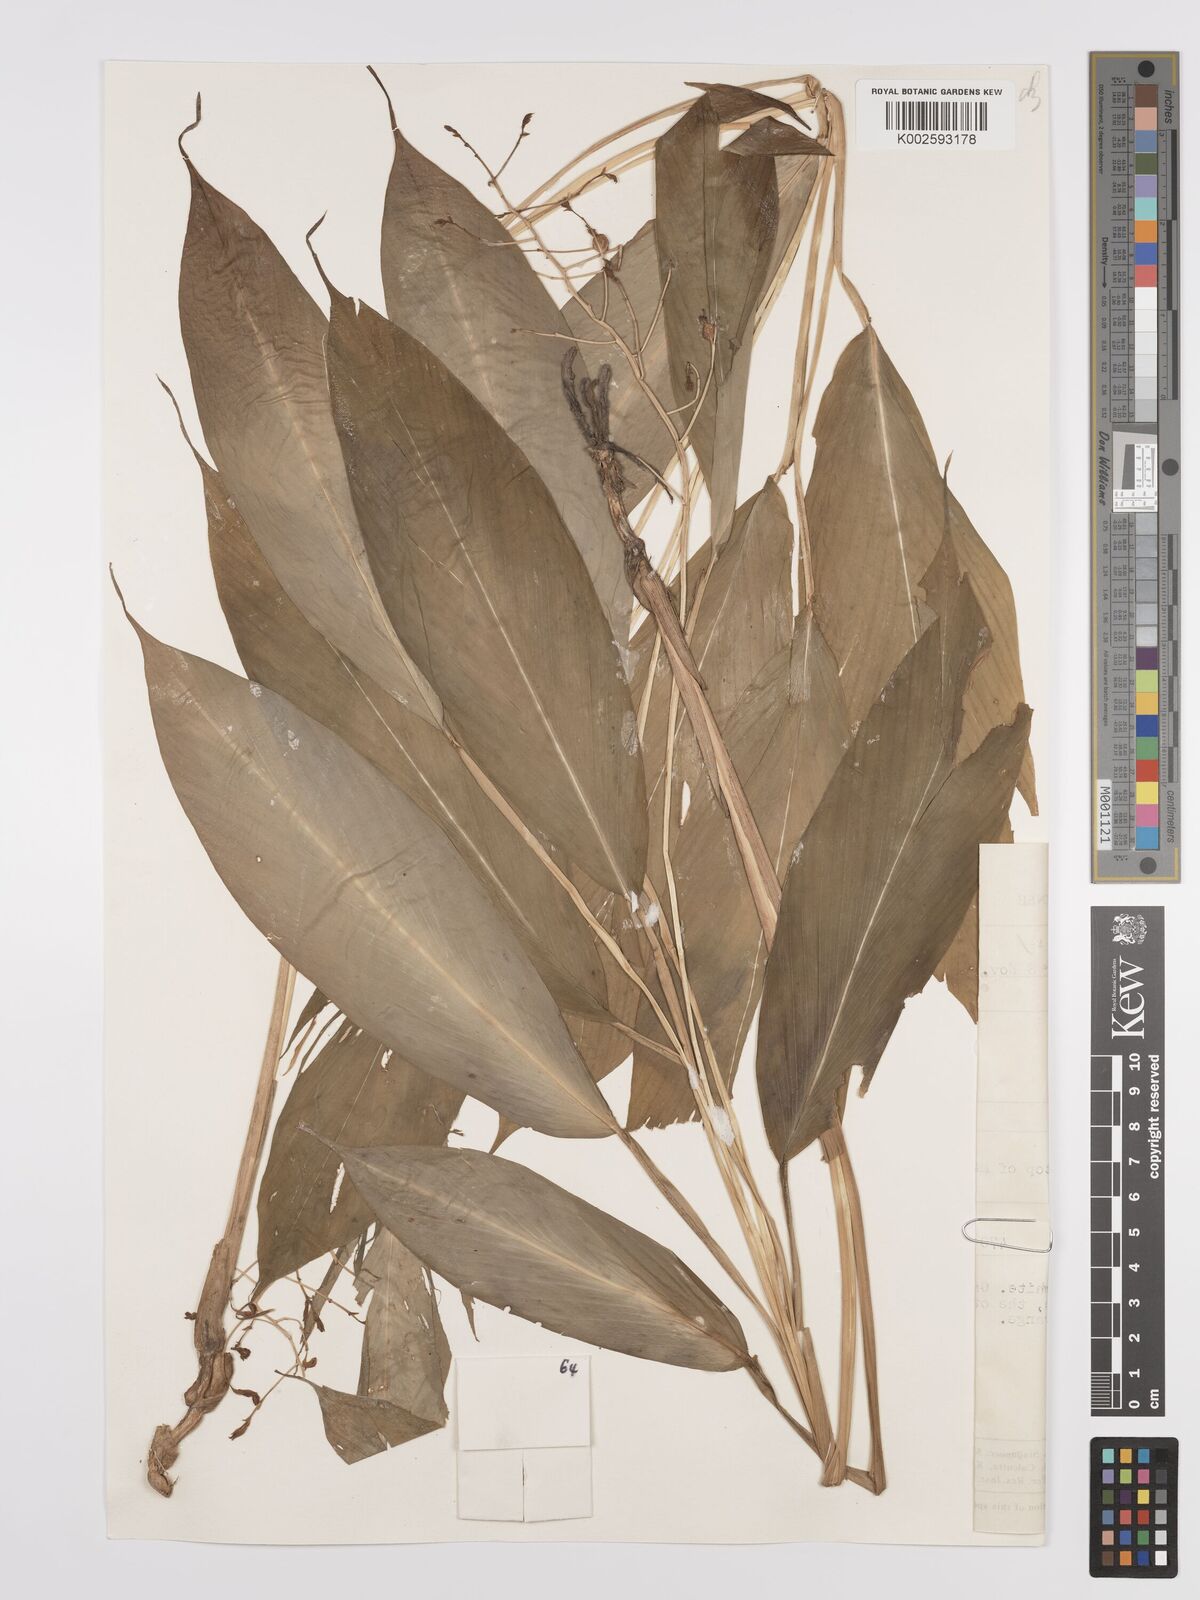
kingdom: Plantae
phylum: Tracheophyta
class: Liliopsida
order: Zingiberales
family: Zingiberaceae
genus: Globba
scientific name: Globba
